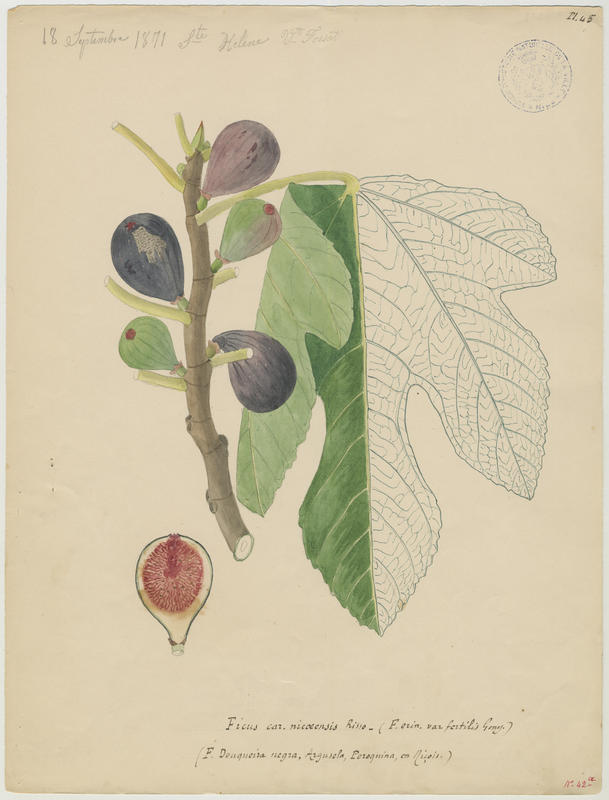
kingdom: Plantae
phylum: Tracheophyta
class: Magnoliopsida
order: Rosales
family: Moraceae
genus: Ficus
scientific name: Ficus carica
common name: Fig
